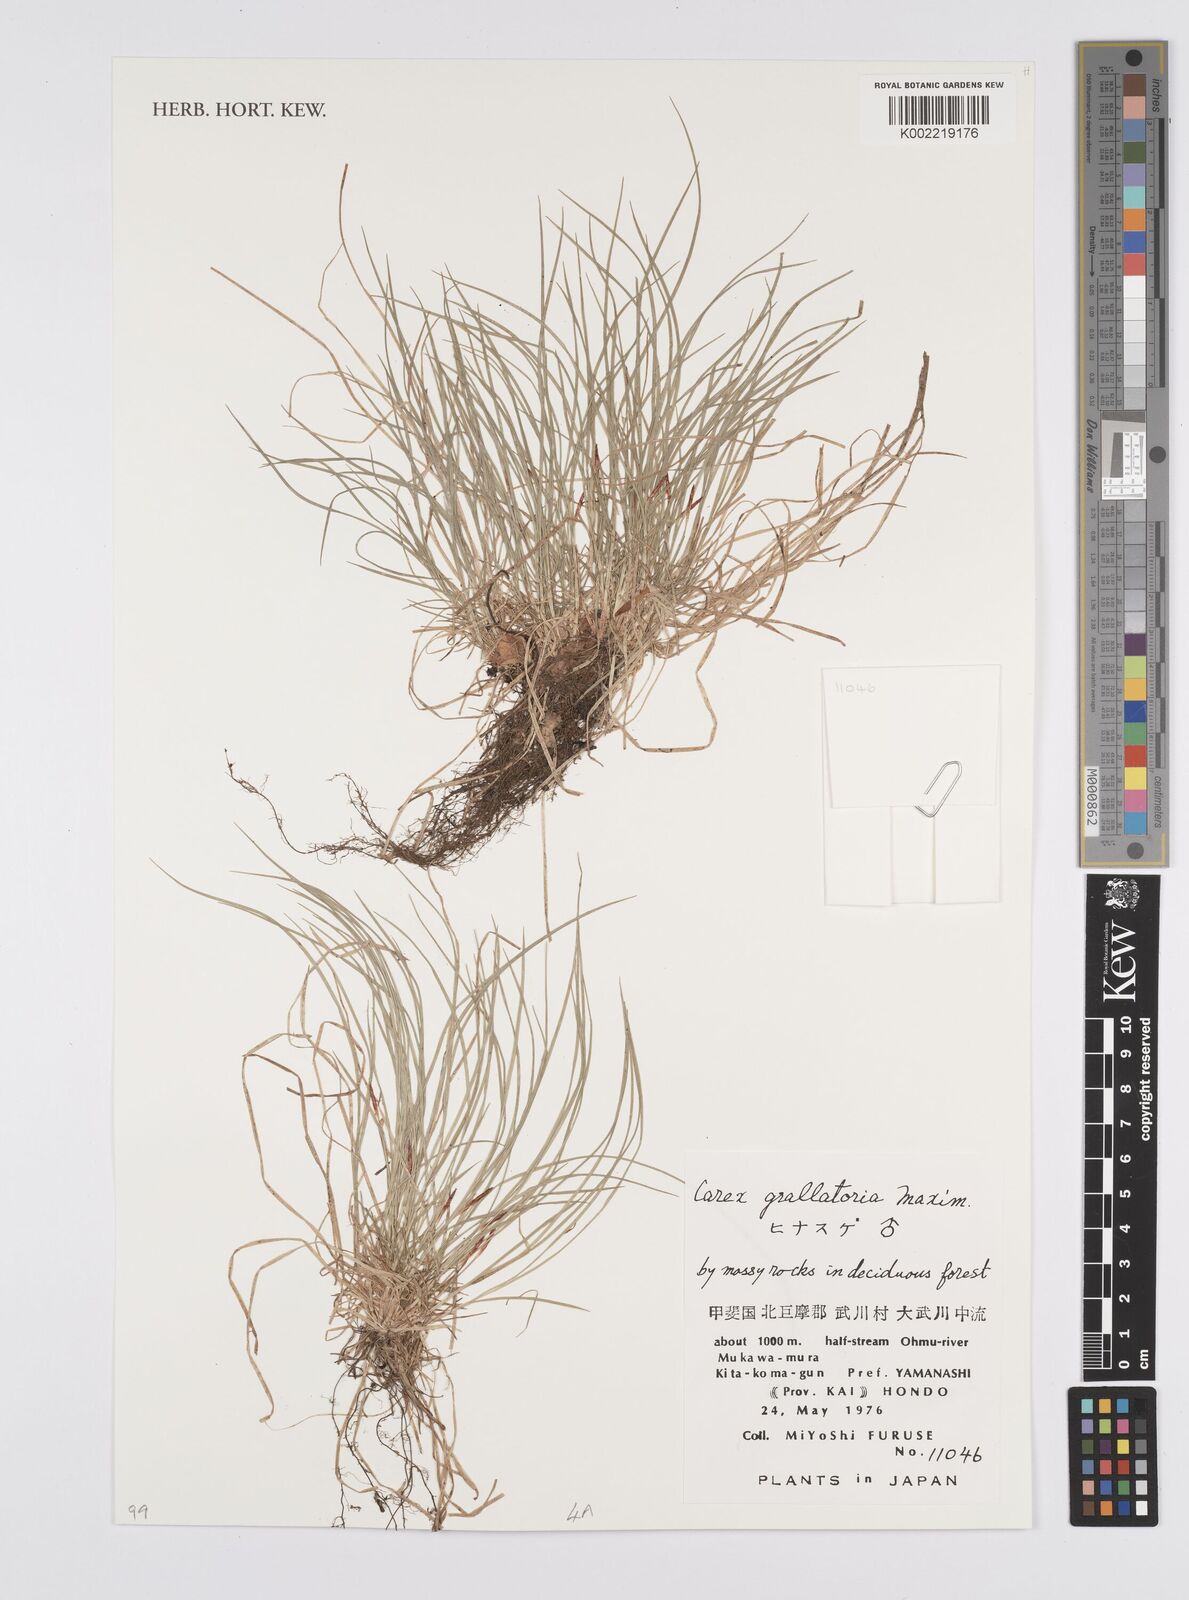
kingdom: Plantae
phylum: Tracheophyta
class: Liliopsida
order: Poales
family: Cyperaceae
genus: Carex
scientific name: Carex grallatoria
